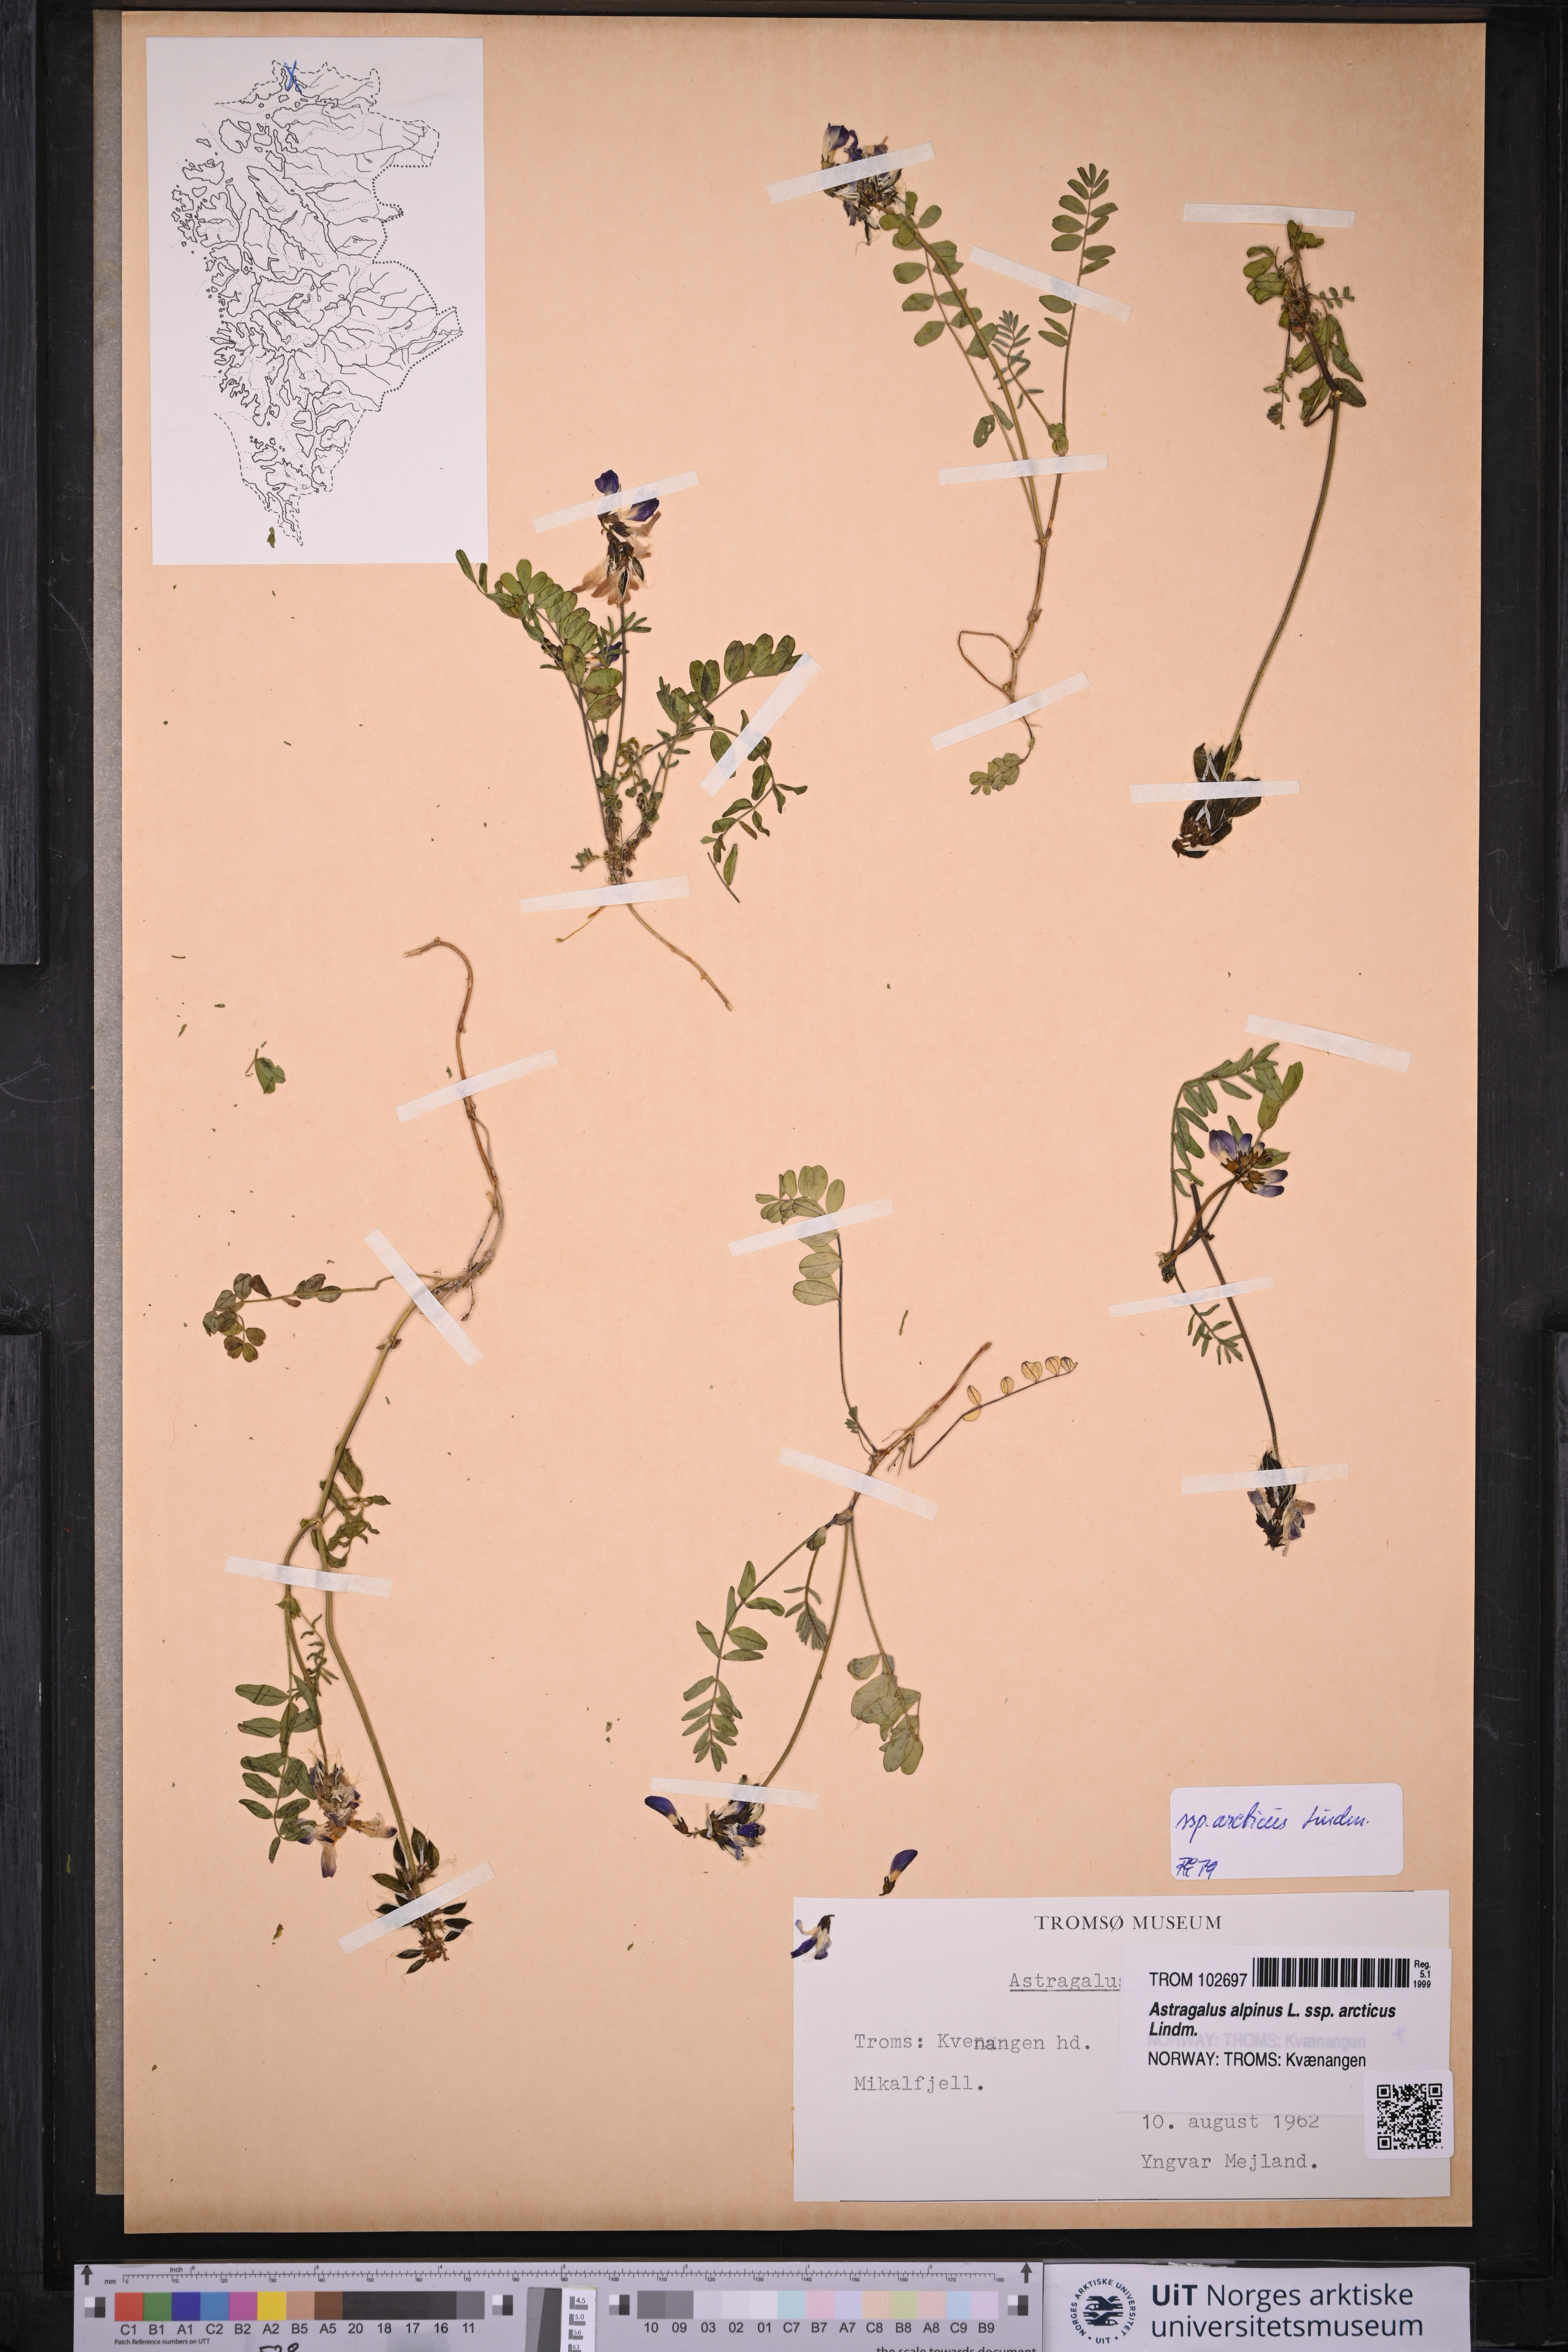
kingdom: Plantae
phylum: Tracheophyta
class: Magnoliopsida
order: Fabales
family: Fabaceae
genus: Astragalus
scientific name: Astragalus norvegicus
